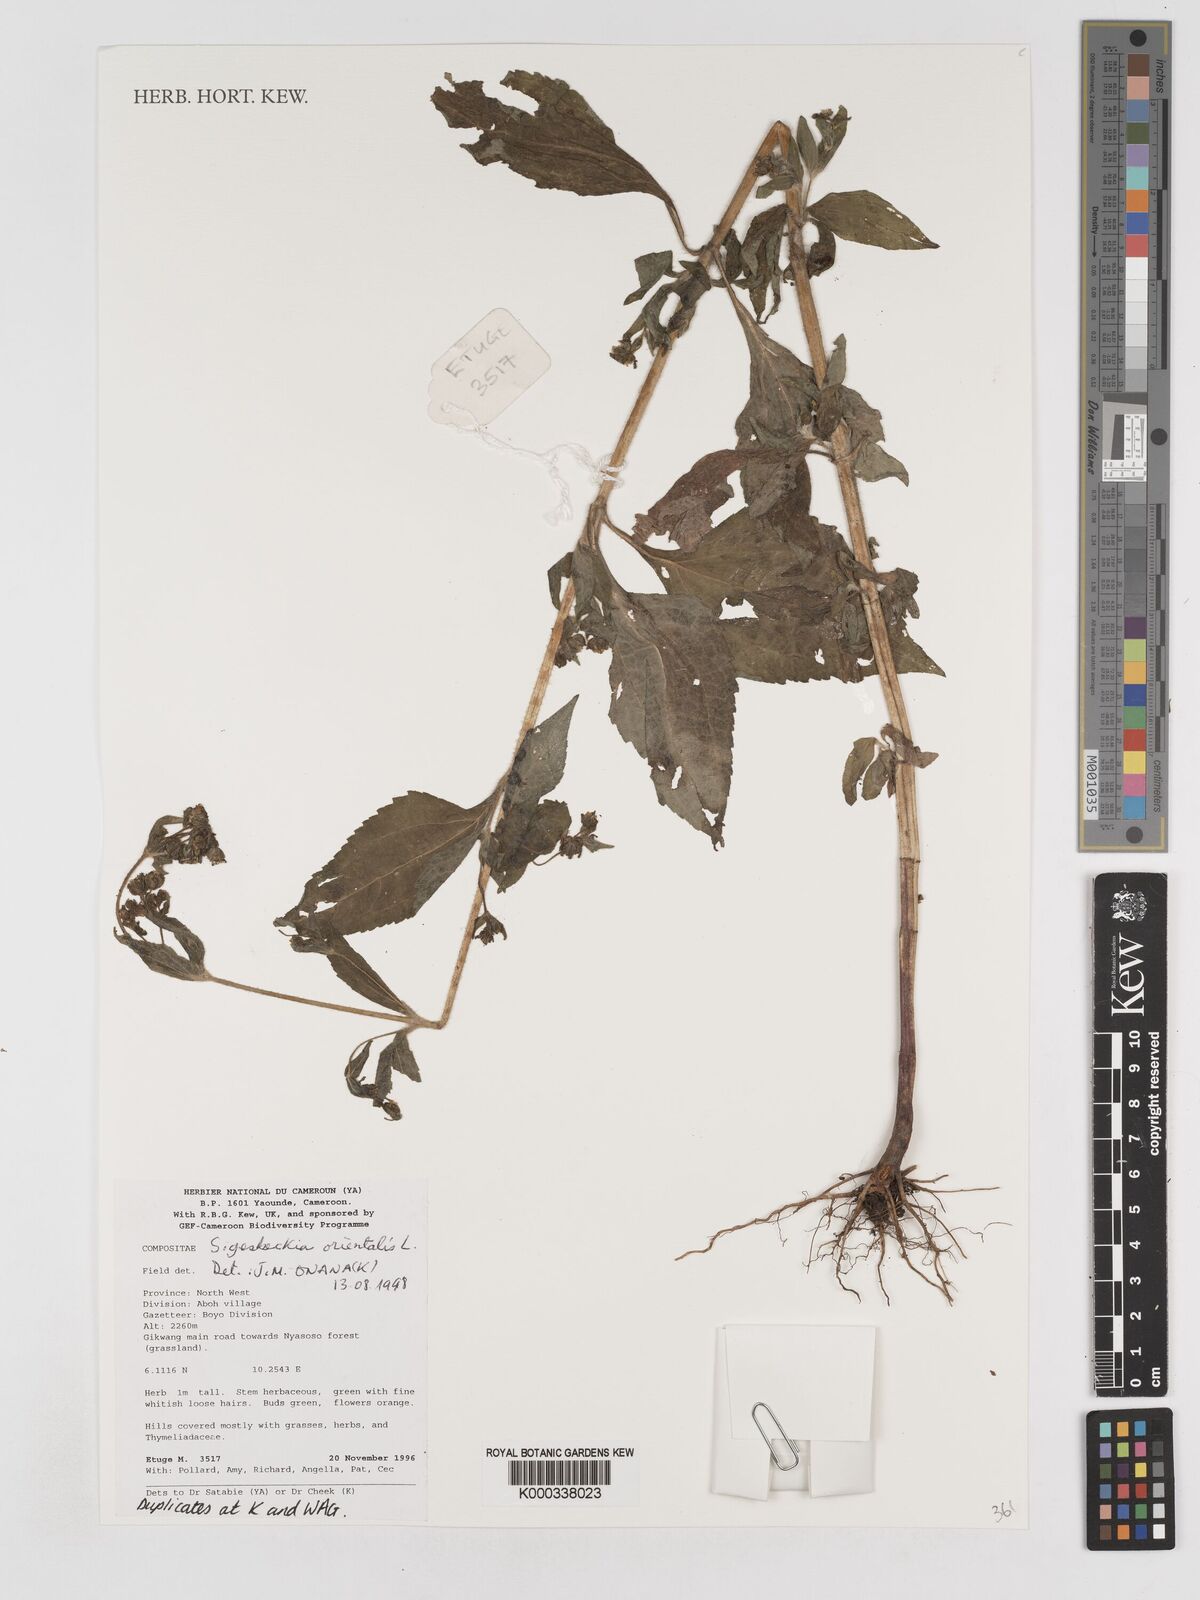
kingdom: Plantae
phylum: Tracheophyta
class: Magnoliopsida
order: Asterales
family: Asteraceae
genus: Sigesbeckia
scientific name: Sigesbeckia
